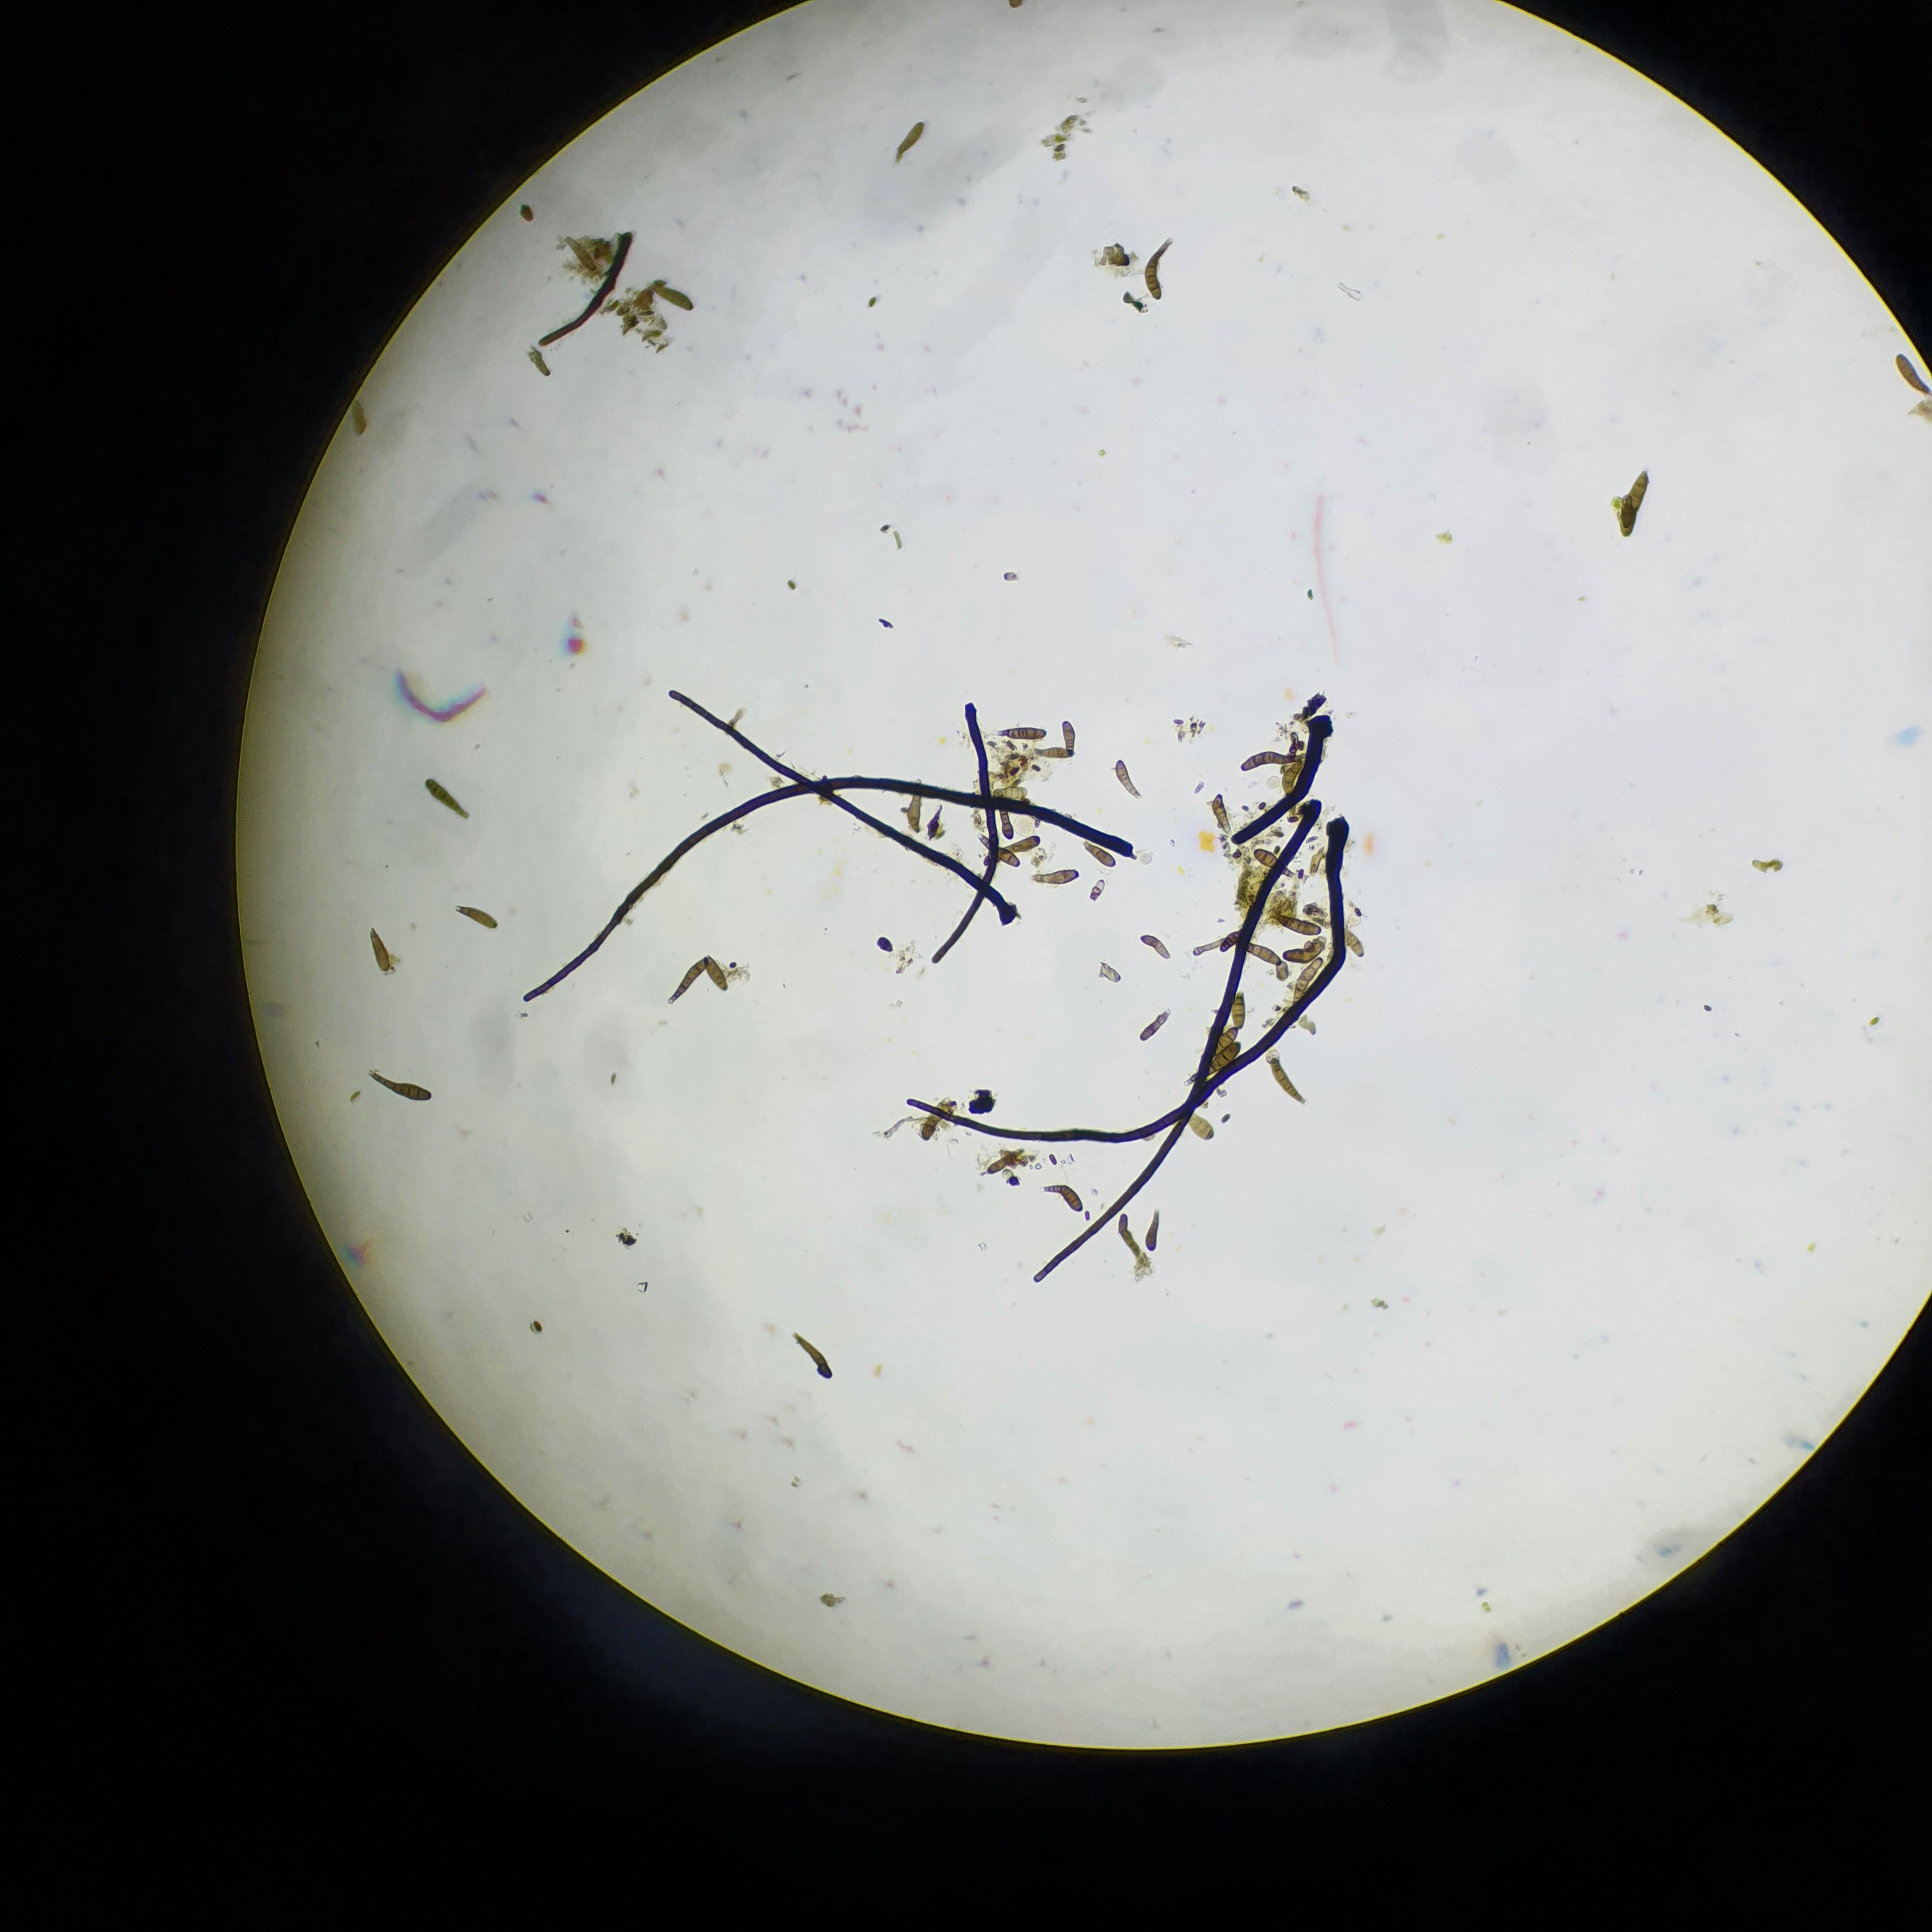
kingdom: Fungi
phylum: Ascomycota
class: Dothideomycetes
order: Pleosporales
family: Massarinaceae
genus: Helminthosporium
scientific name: Helminthosporium velutinum
